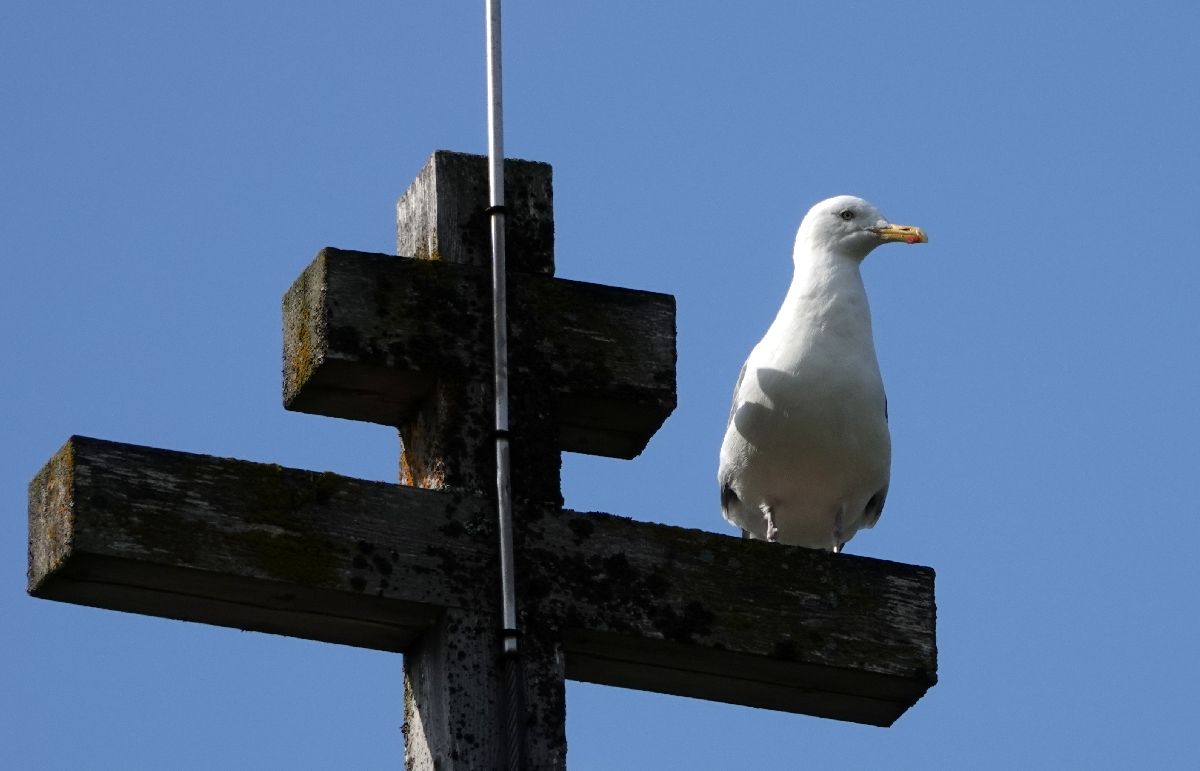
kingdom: Animalia
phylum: Chordata
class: Aves
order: Charadriiformes
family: Laridae
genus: Larus
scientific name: Larus argentatus
